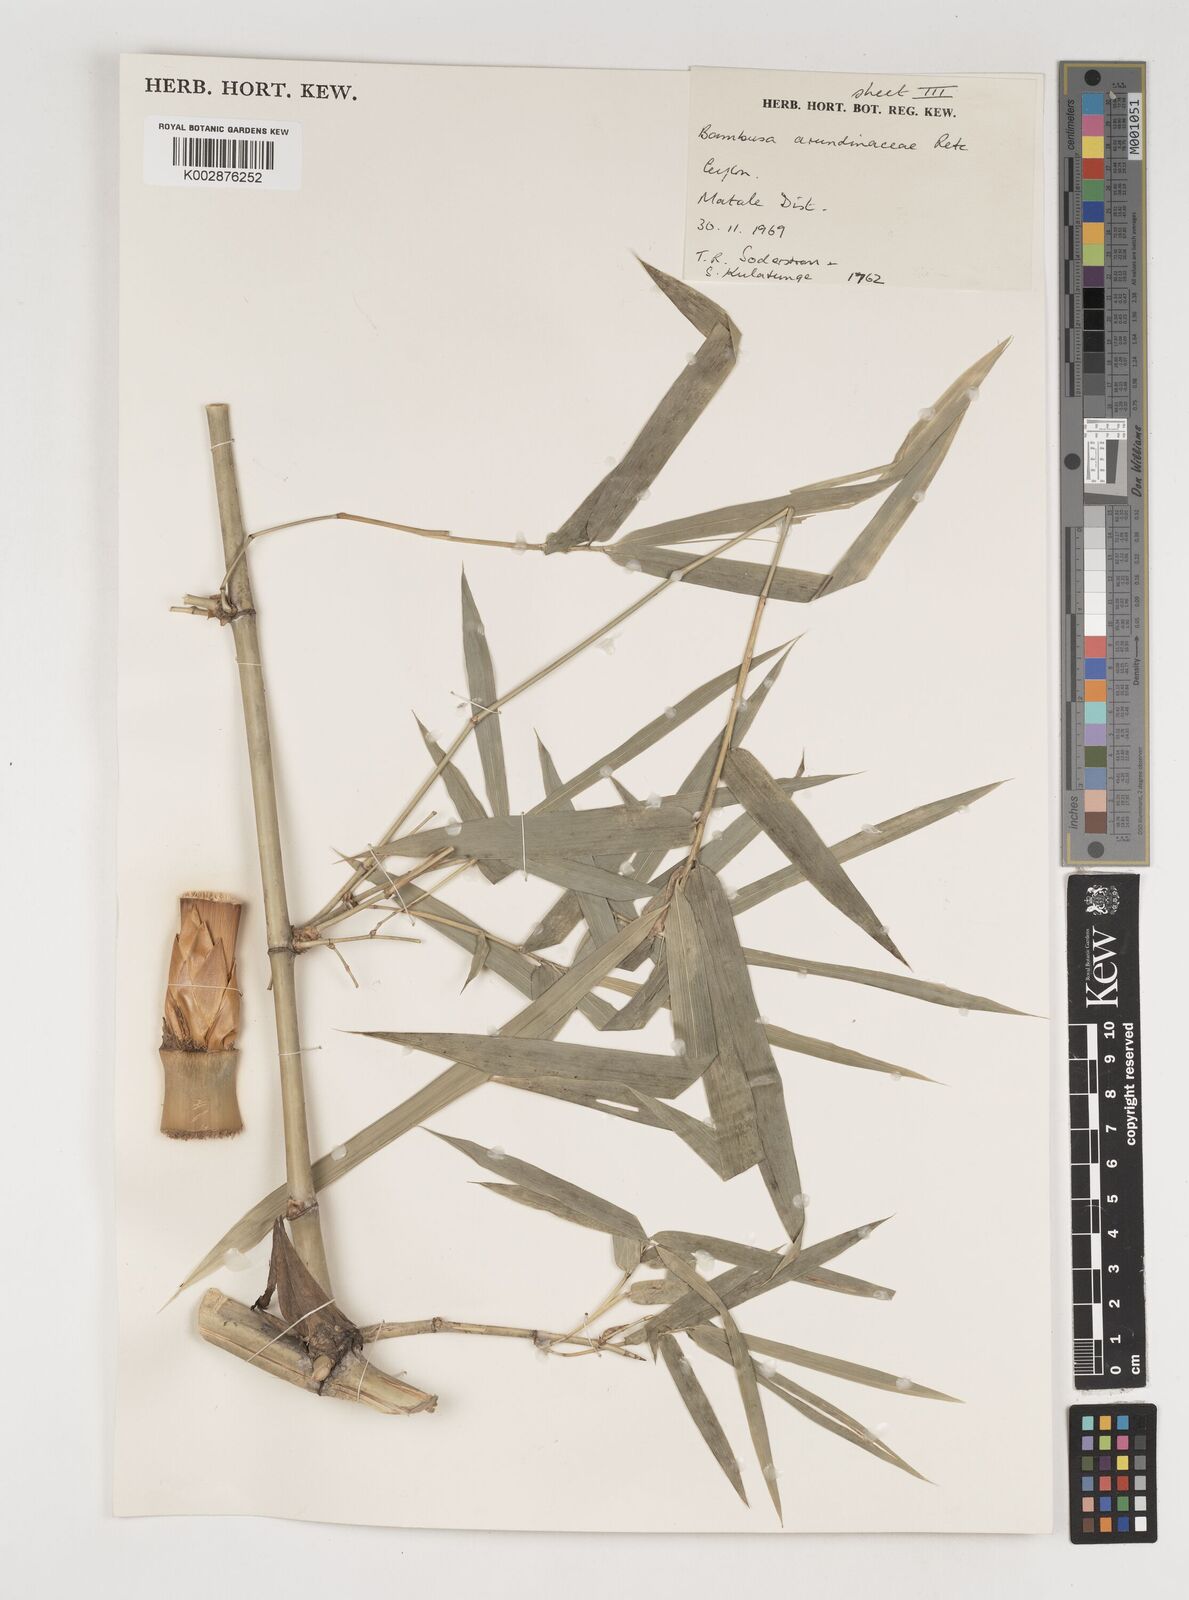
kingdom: Plantae
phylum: Tracheophyta
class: Liliopsida
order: Poales
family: Poaceae
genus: Bambusa
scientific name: Bambusa bambos
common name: Indian thorny bamboo
